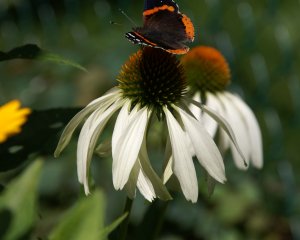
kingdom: Animalia
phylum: Arthropoda
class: Insecta
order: Lepidoptera
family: Nymphalidae
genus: Vanessa
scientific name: Vanessa atalanta
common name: Red Admiral
